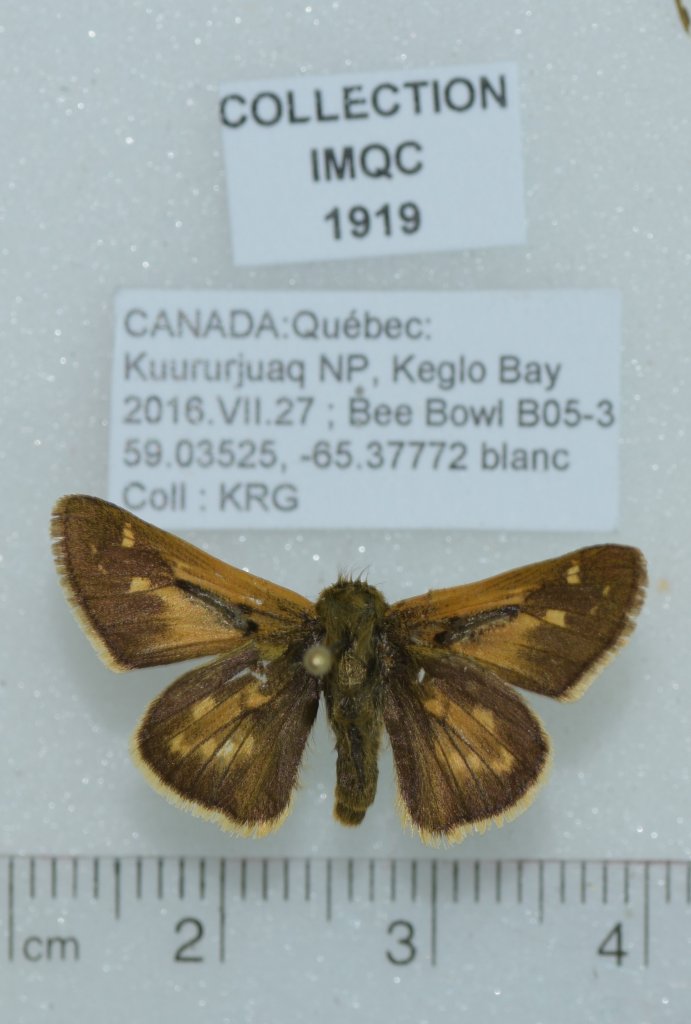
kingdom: Animalia
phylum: Arthropoda
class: Insecta
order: Lepidoptera
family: Hesperiidae
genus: Hesperia
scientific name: Hesperia comma
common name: Common Branded Skipper
